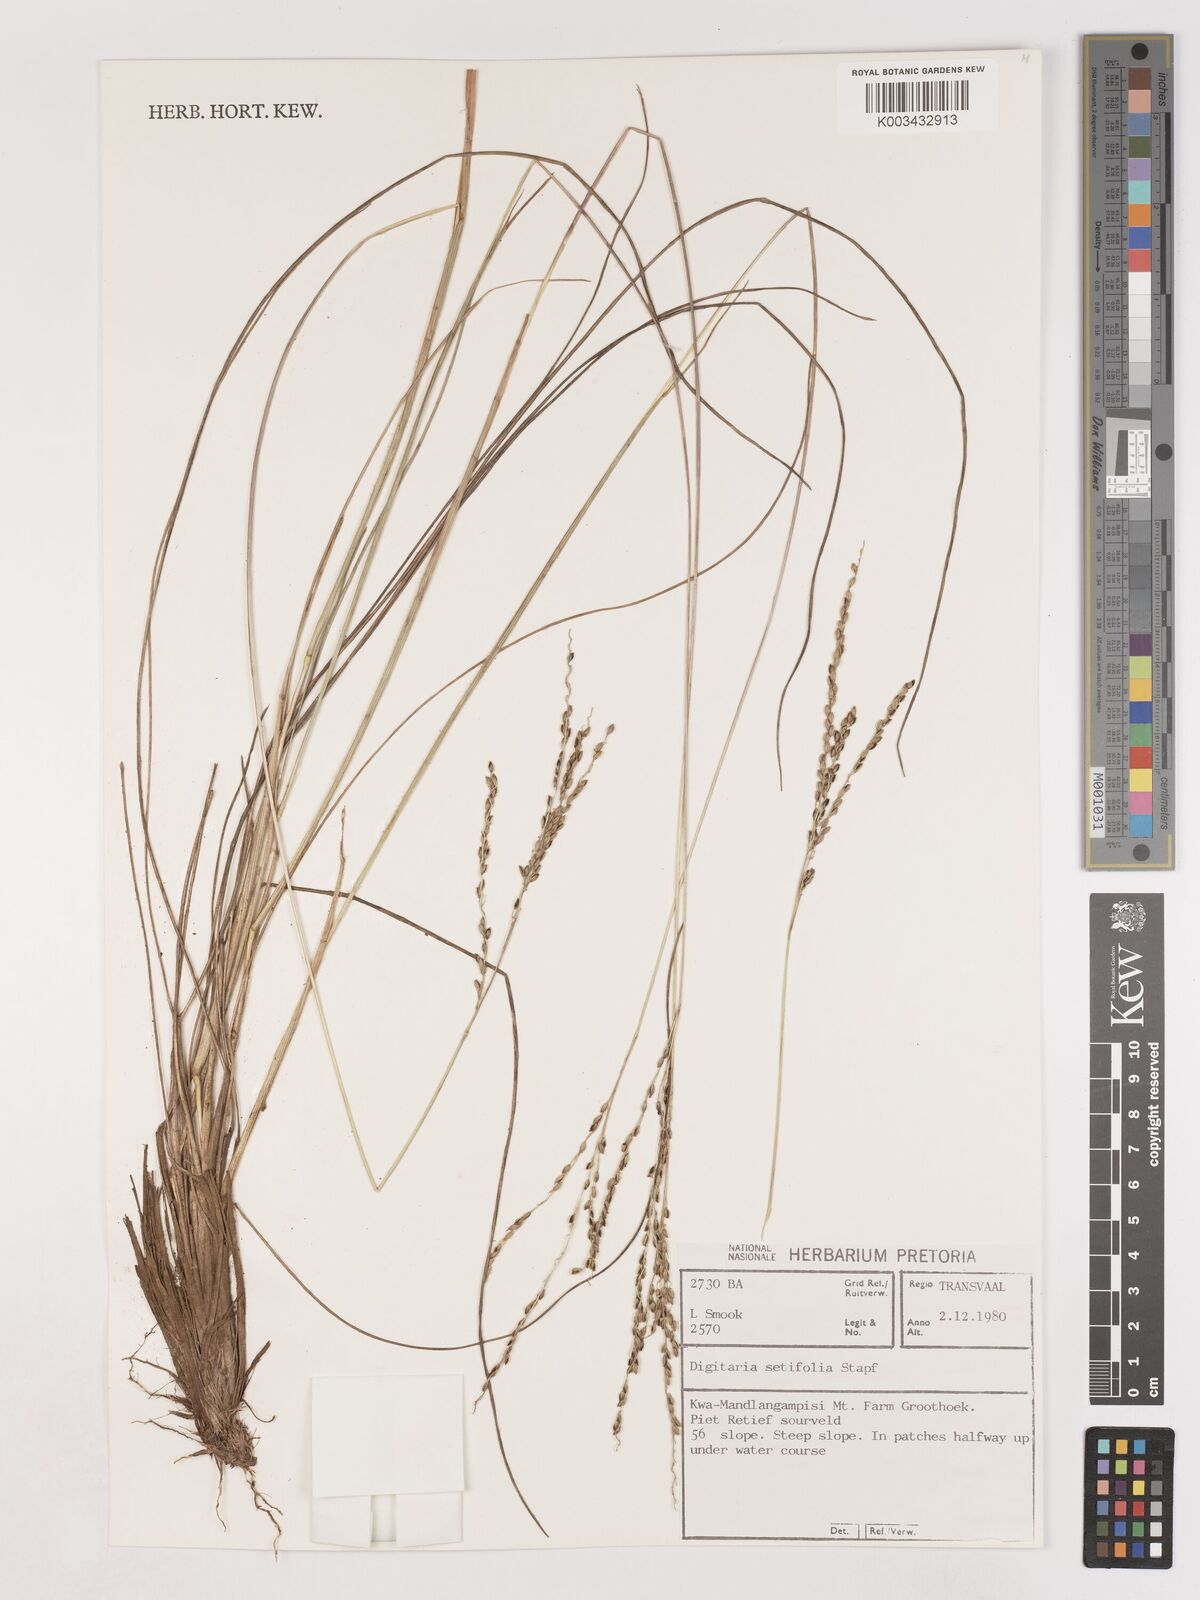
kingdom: Plantae
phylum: Tracheophyta
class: Liliopsida
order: Poales
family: Poaceae
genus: Digitaria
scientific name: Digitaria setifolia
